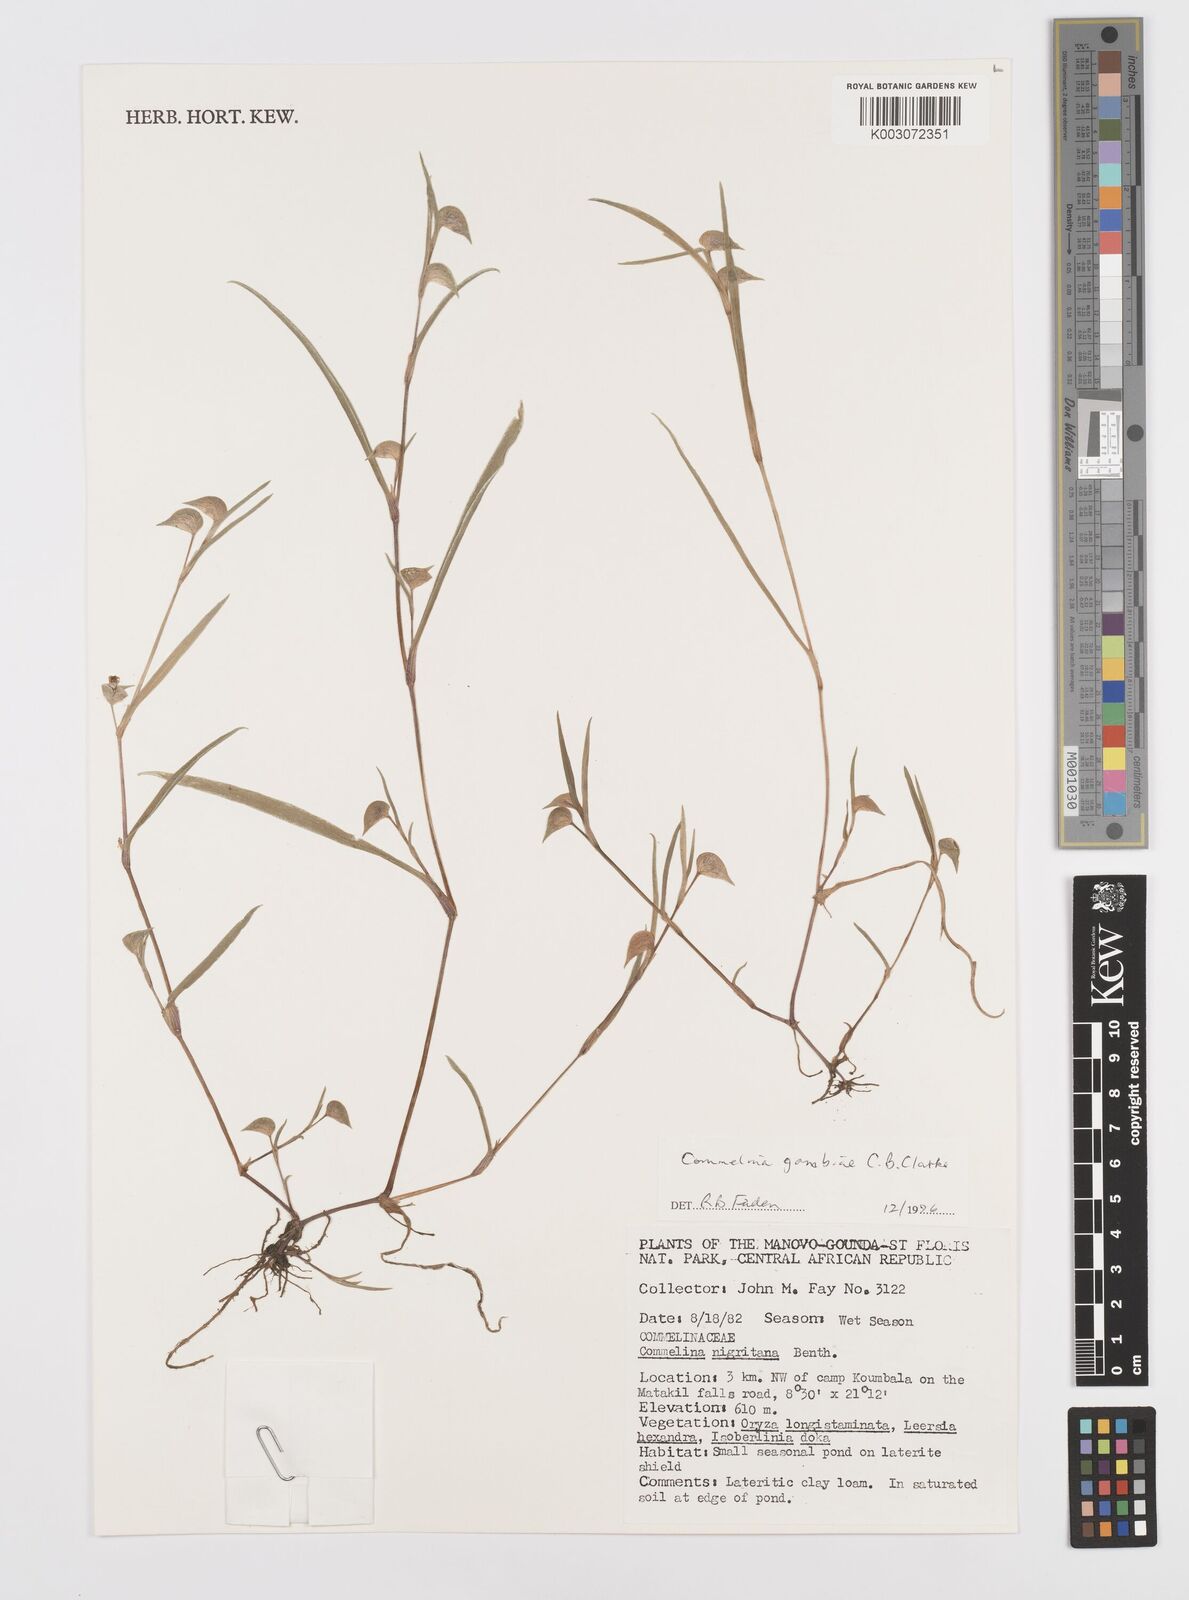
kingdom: Plantae
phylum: Tracheophyta
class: Liliopsida
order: Commelinales
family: Commelinaceae
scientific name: Commelinaceae
